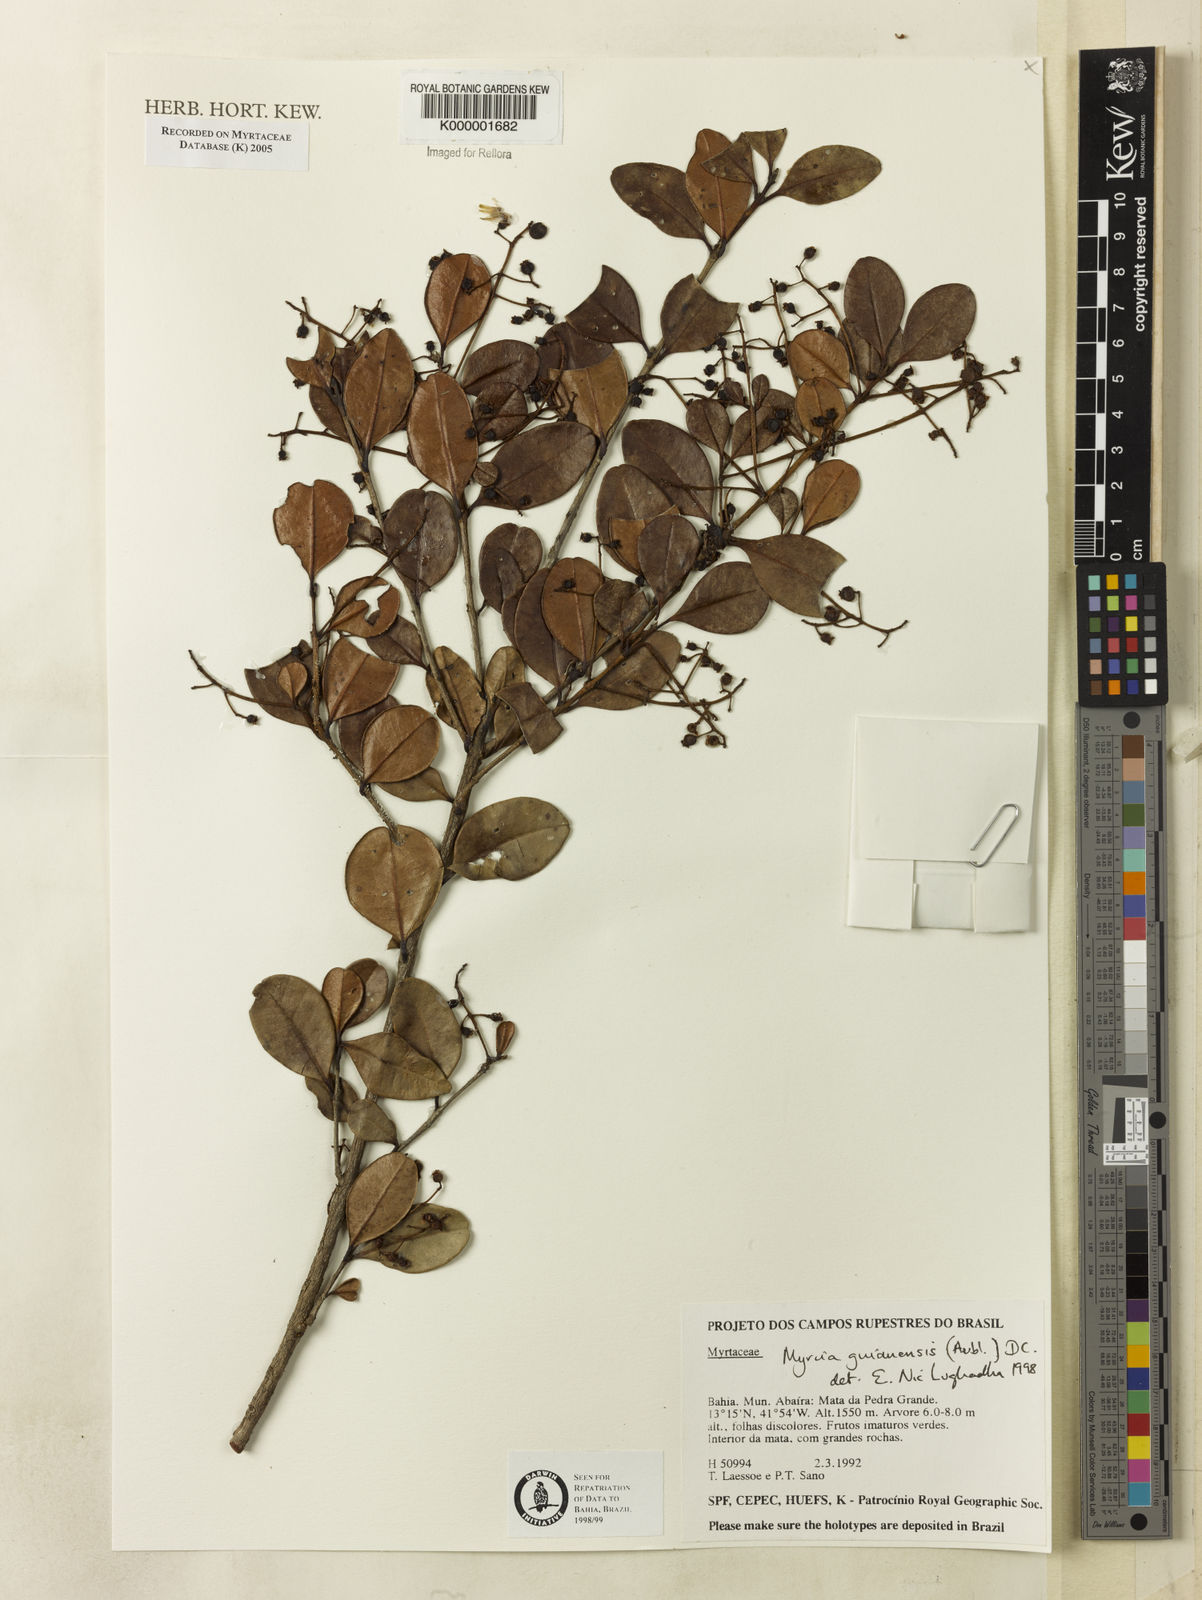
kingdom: Plantae
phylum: Tracheophyta
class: Magnoliopsida
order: Myrtales
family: Myrtaceae
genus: Myrcia
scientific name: Myrcia guianensis
